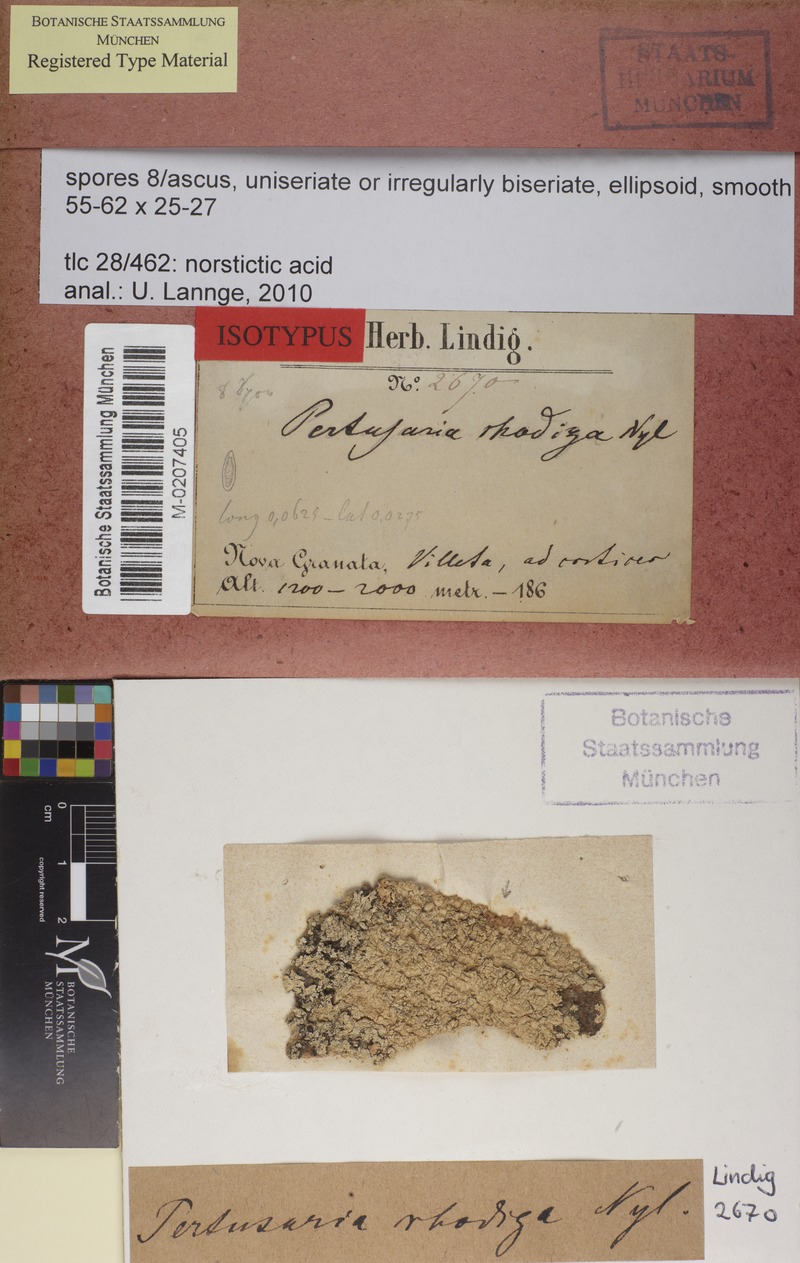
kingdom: Fungi
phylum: Ascomycota
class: Lecanoromycetes
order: Pertusariales
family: Pertusariaceae
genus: Pertusaria
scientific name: Pertusaria tetrathalamia
